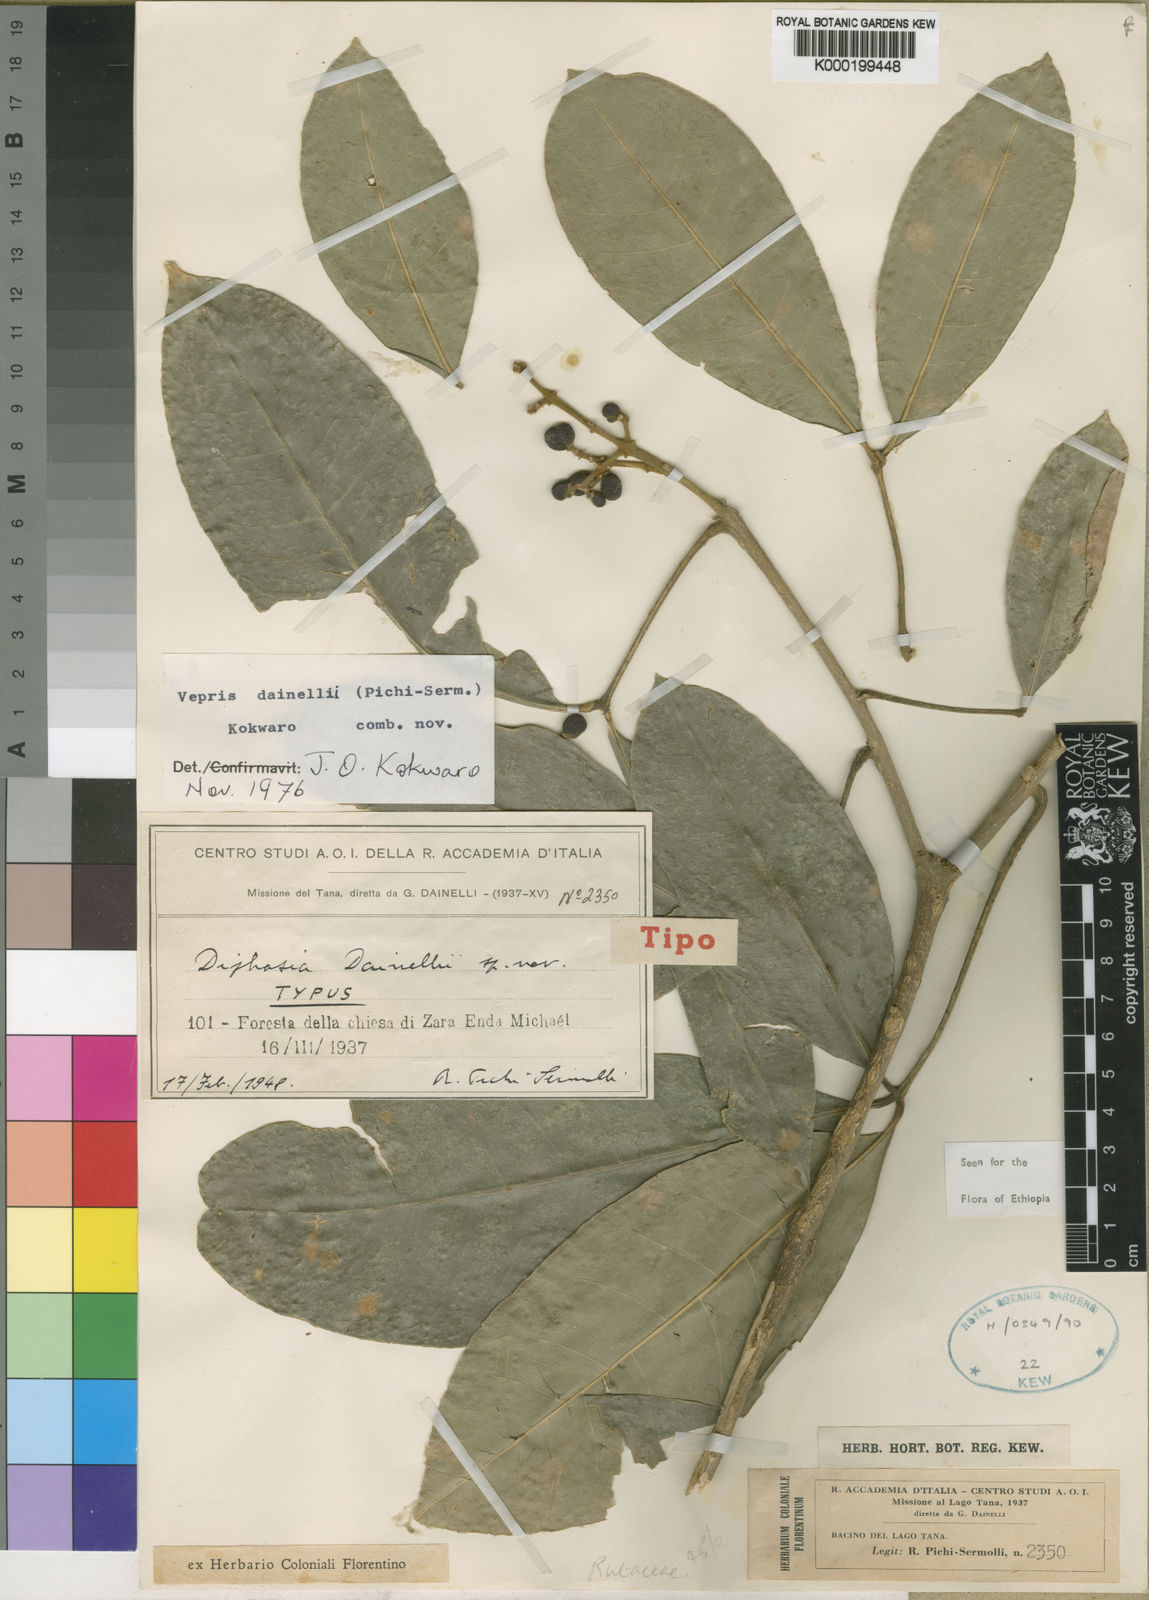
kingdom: Plantae
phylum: Tracheophyta
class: Magnoliopsida
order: Sapindales
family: Rutaceae
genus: Vepris
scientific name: Vepris dainellii
